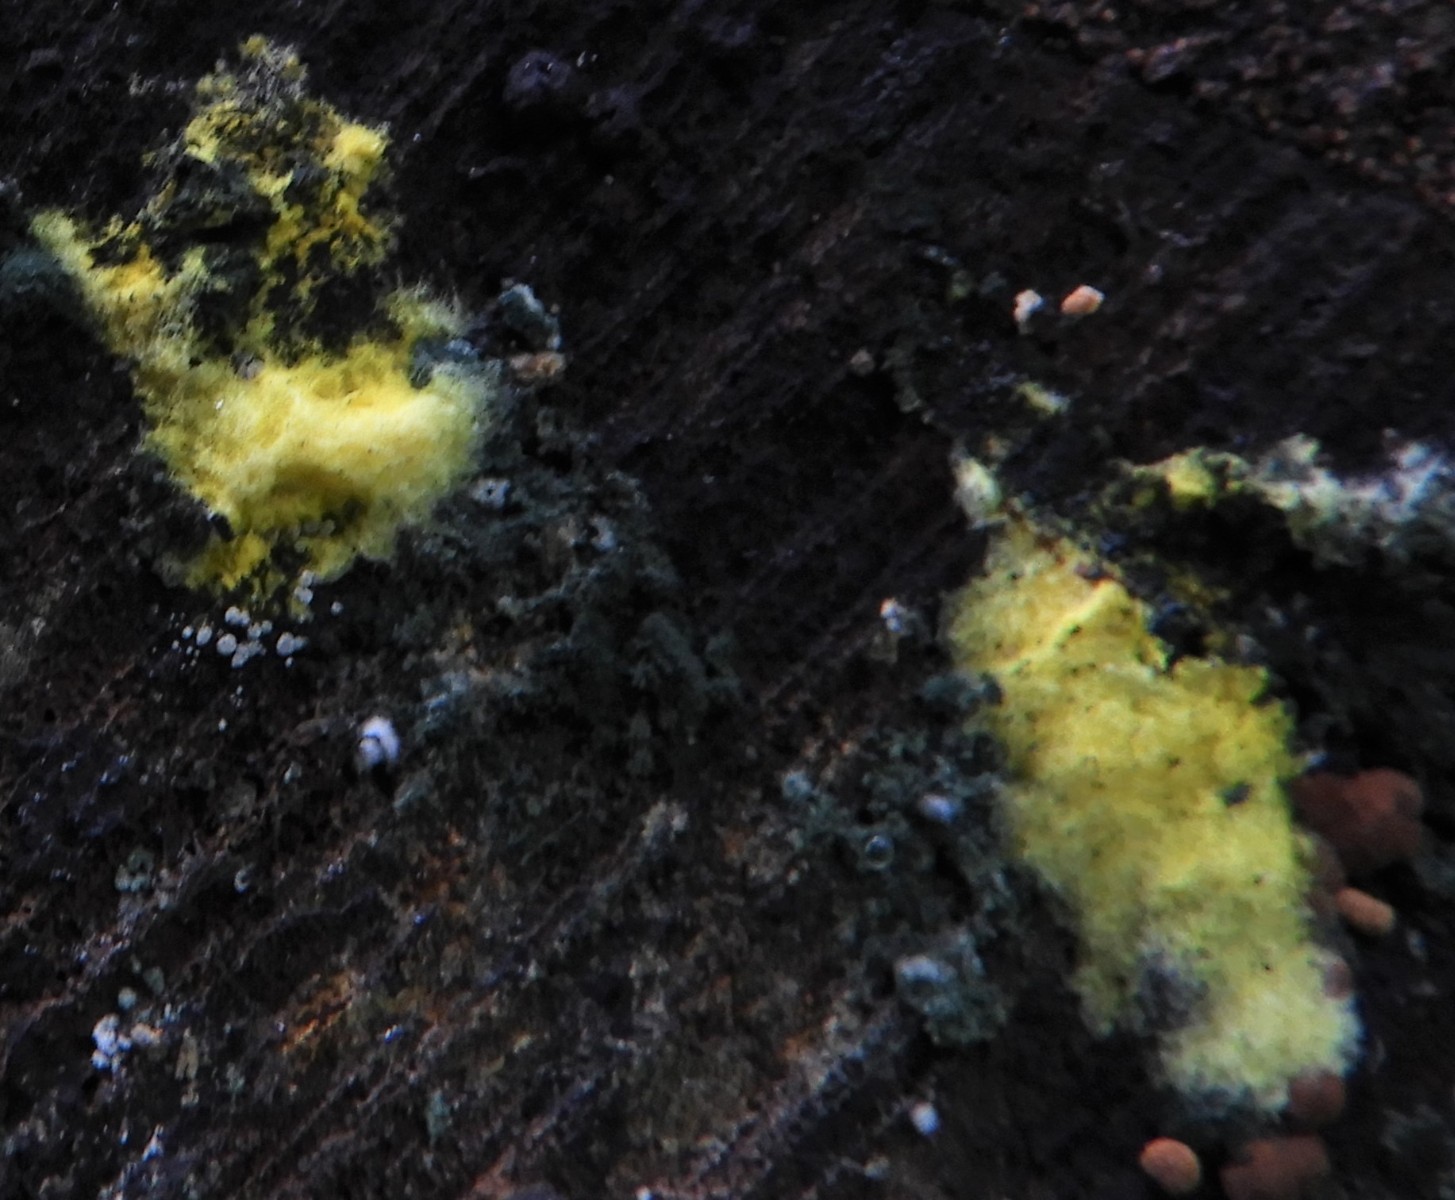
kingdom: Fungi
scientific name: Fungi
